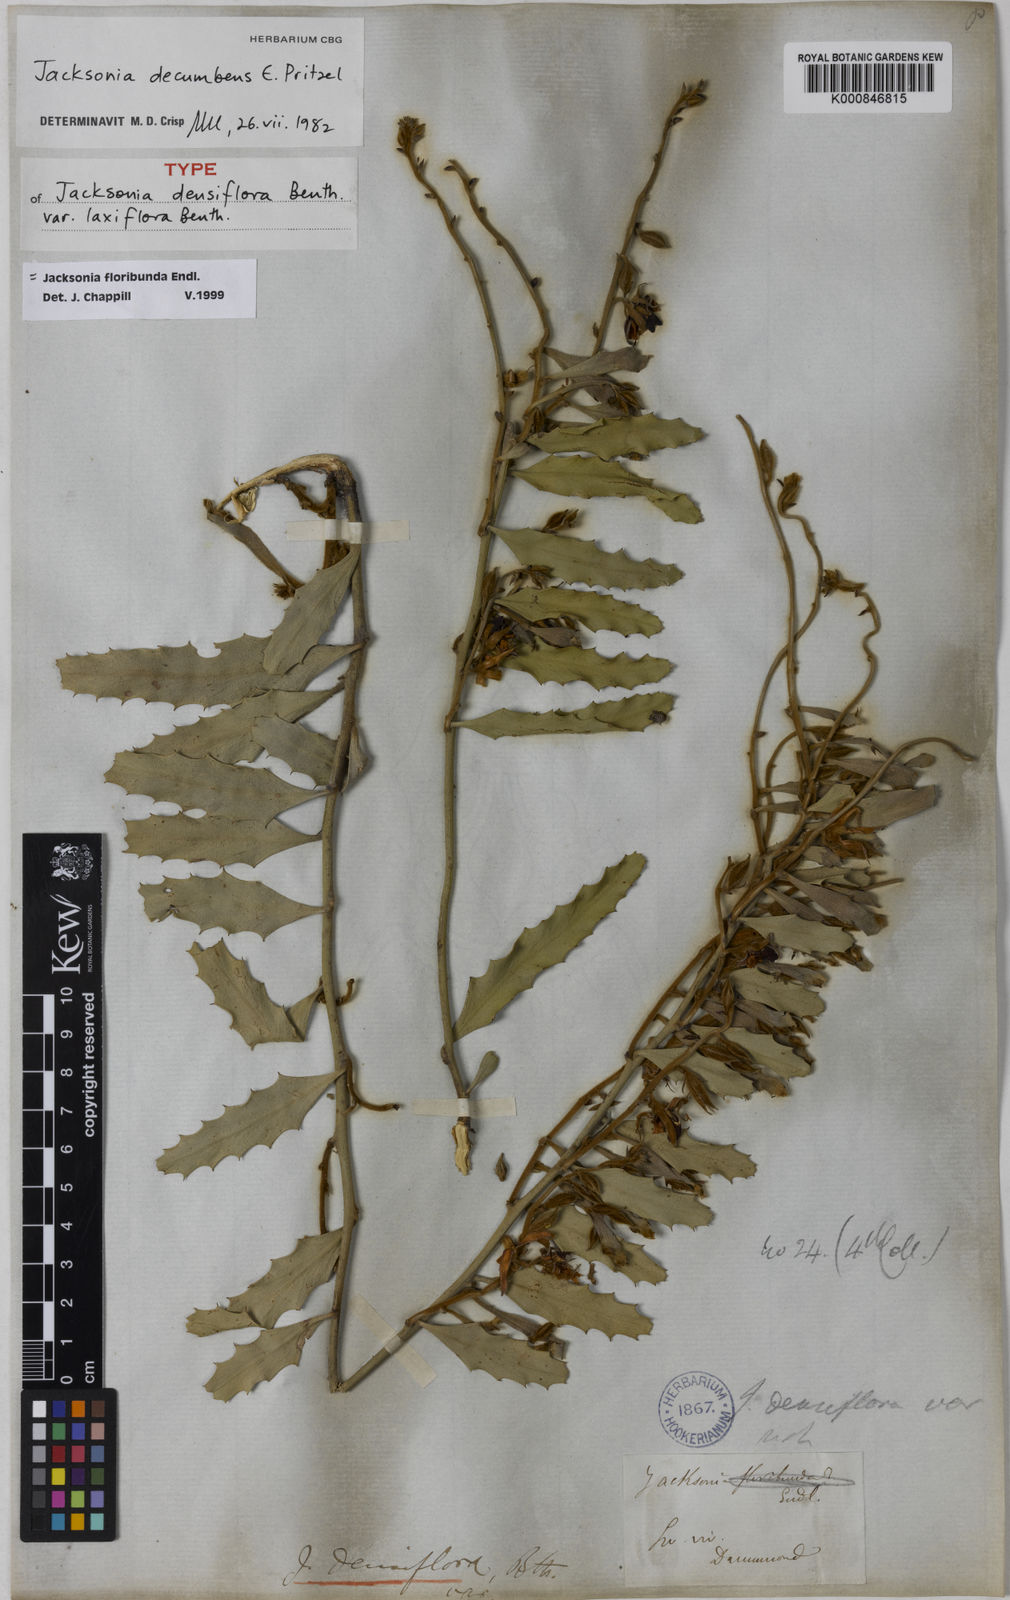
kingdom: Plantae
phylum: Tracheophyta
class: Magnoliopsida
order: Fabales
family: Fabaceae
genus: Jacksonia
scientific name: Jacksonia floribunda
